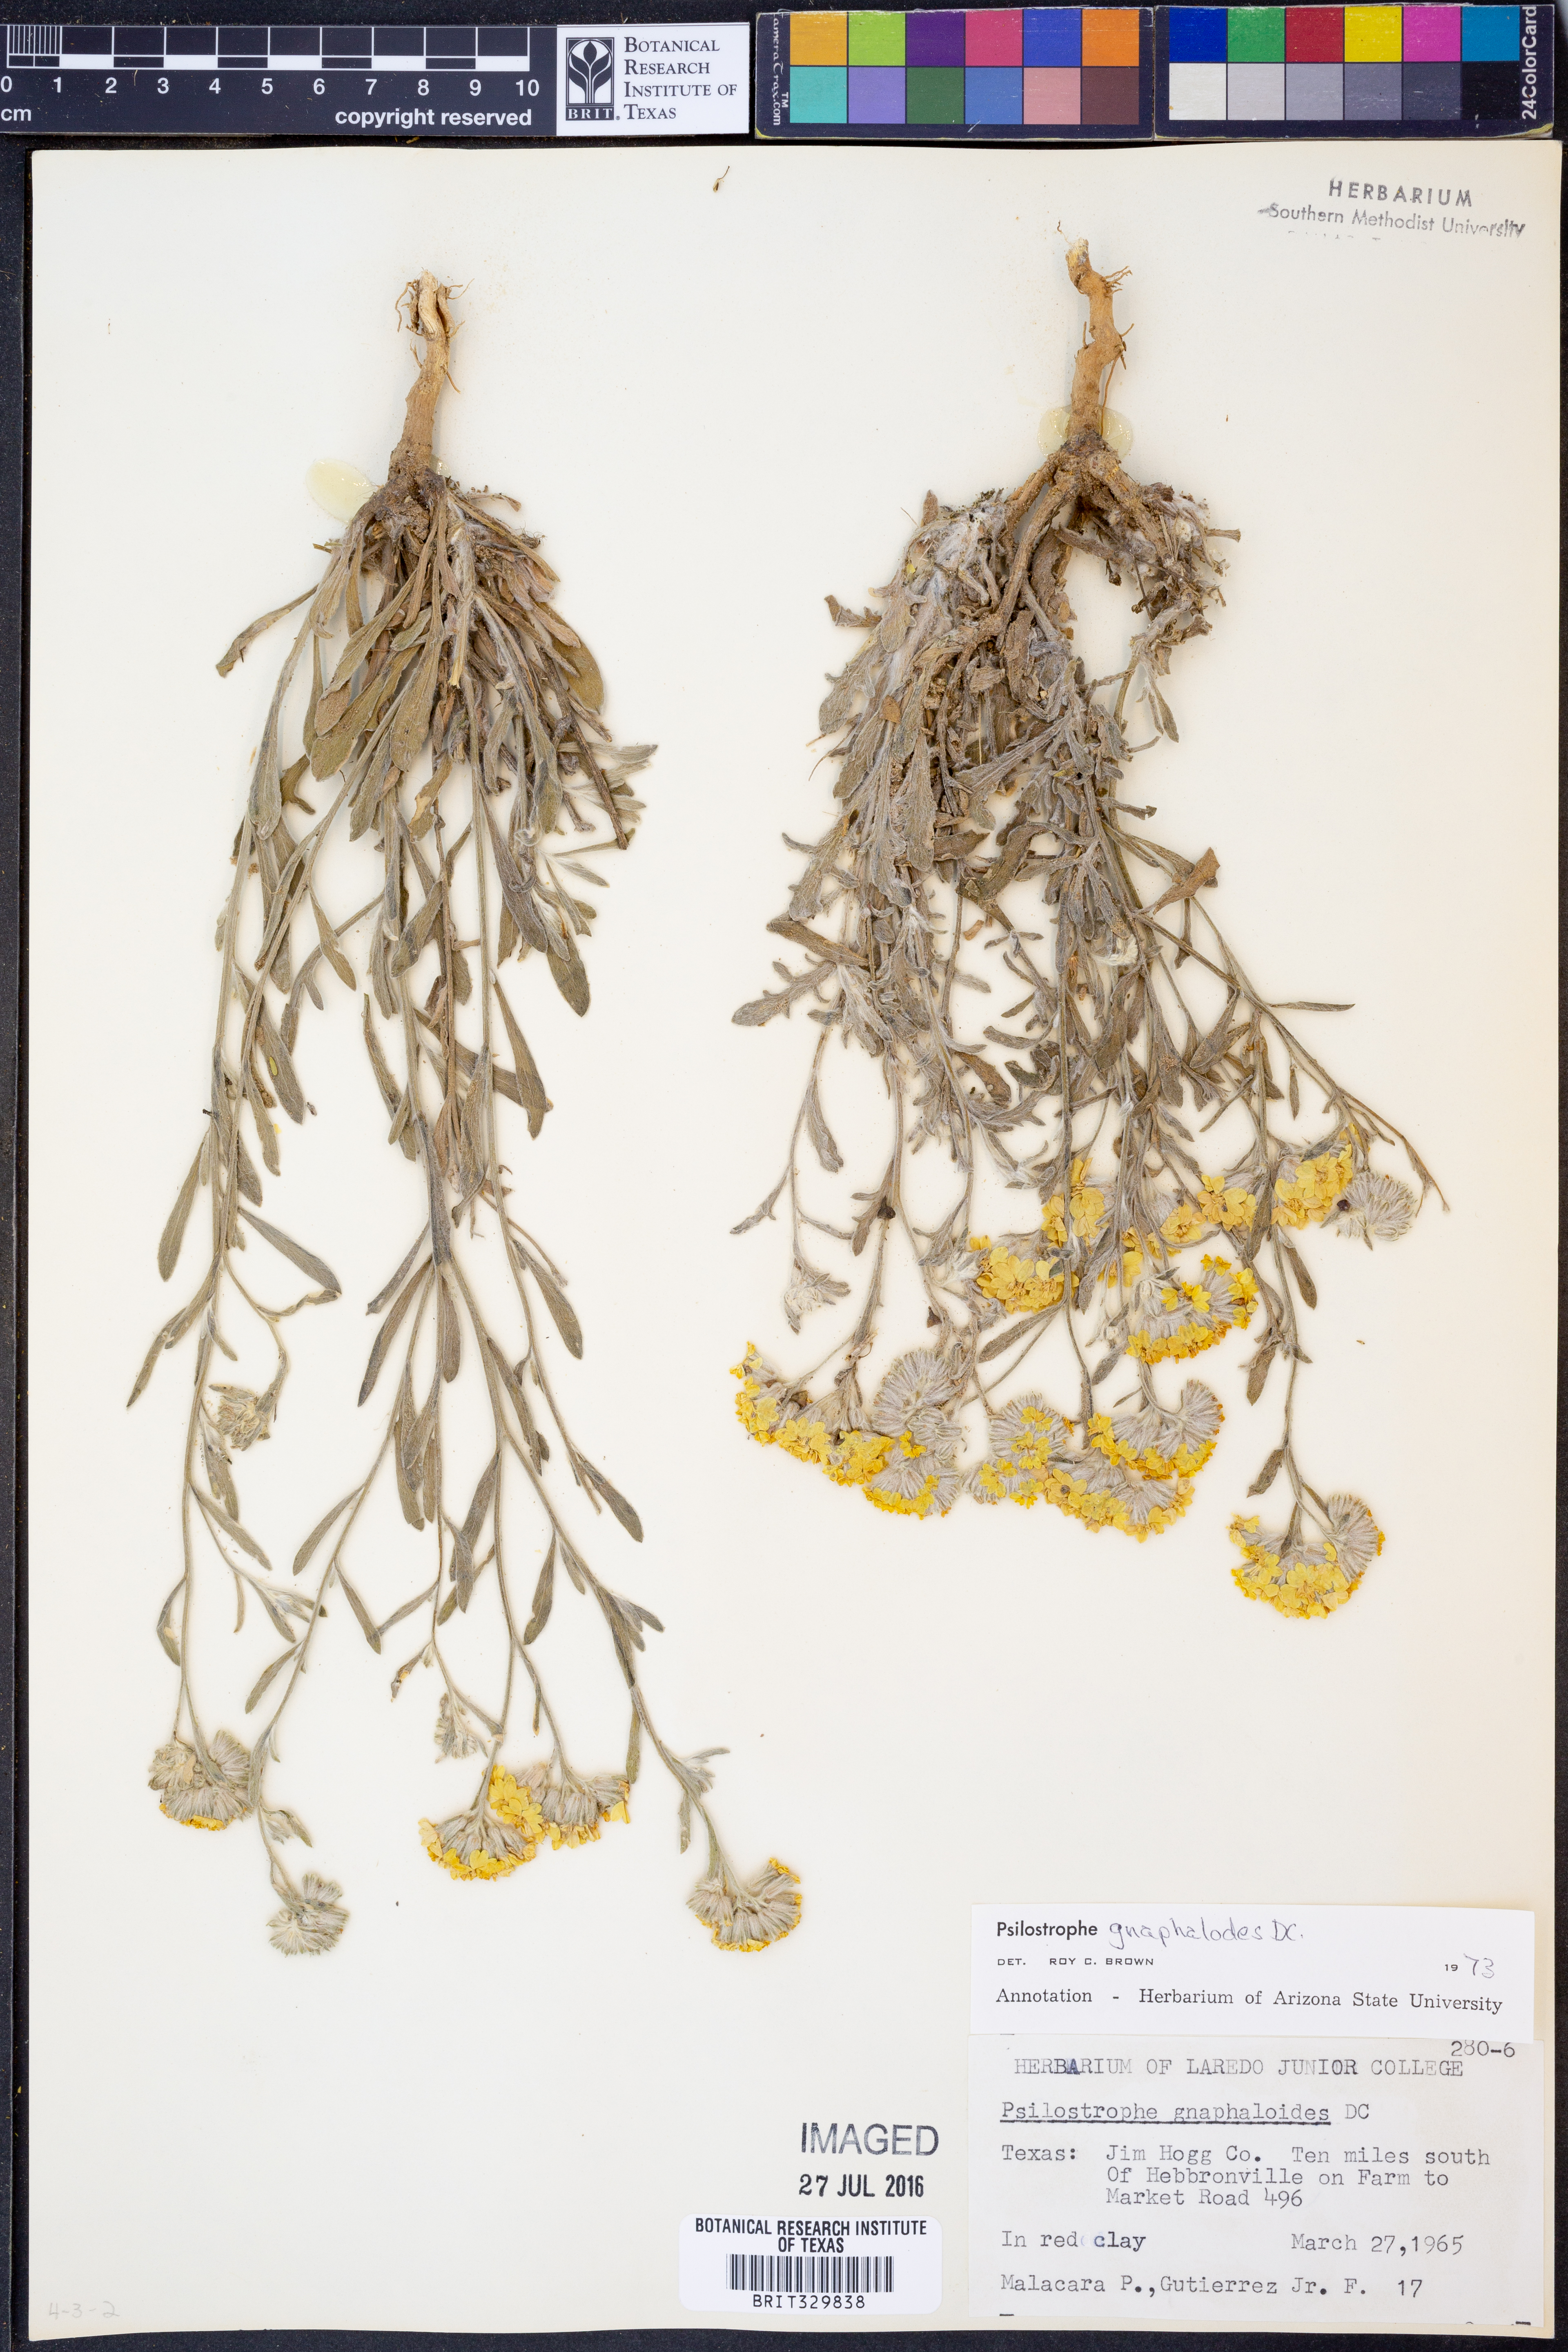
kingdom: Plantae
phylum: Tracheophyta
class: Magnoliopsida
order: Asterales
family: Asteraceae
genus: Psilostrophe
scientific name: Psilostrophe gnaphalioides
